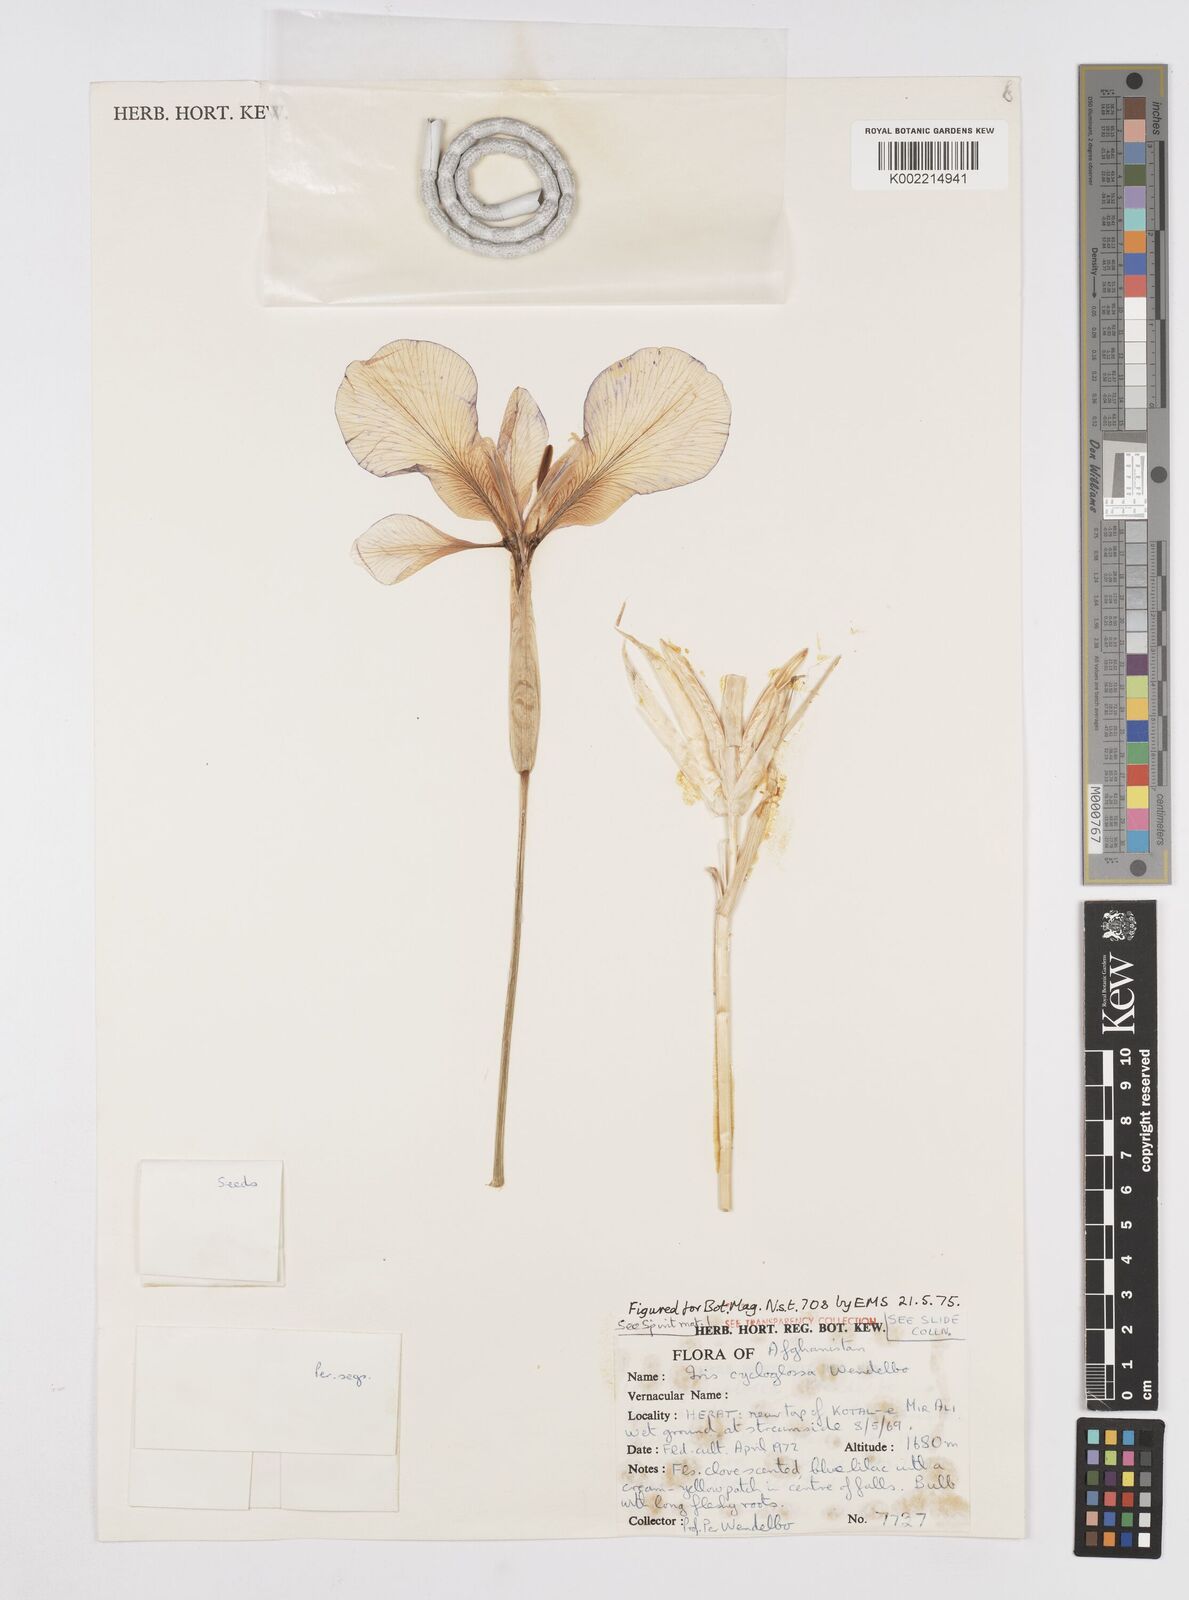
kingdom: Plantae
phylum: Tracheophyta
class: Liliopsida
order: Asparagales
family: Iridaceae
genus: Iris
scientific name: Iris cycloglossa
